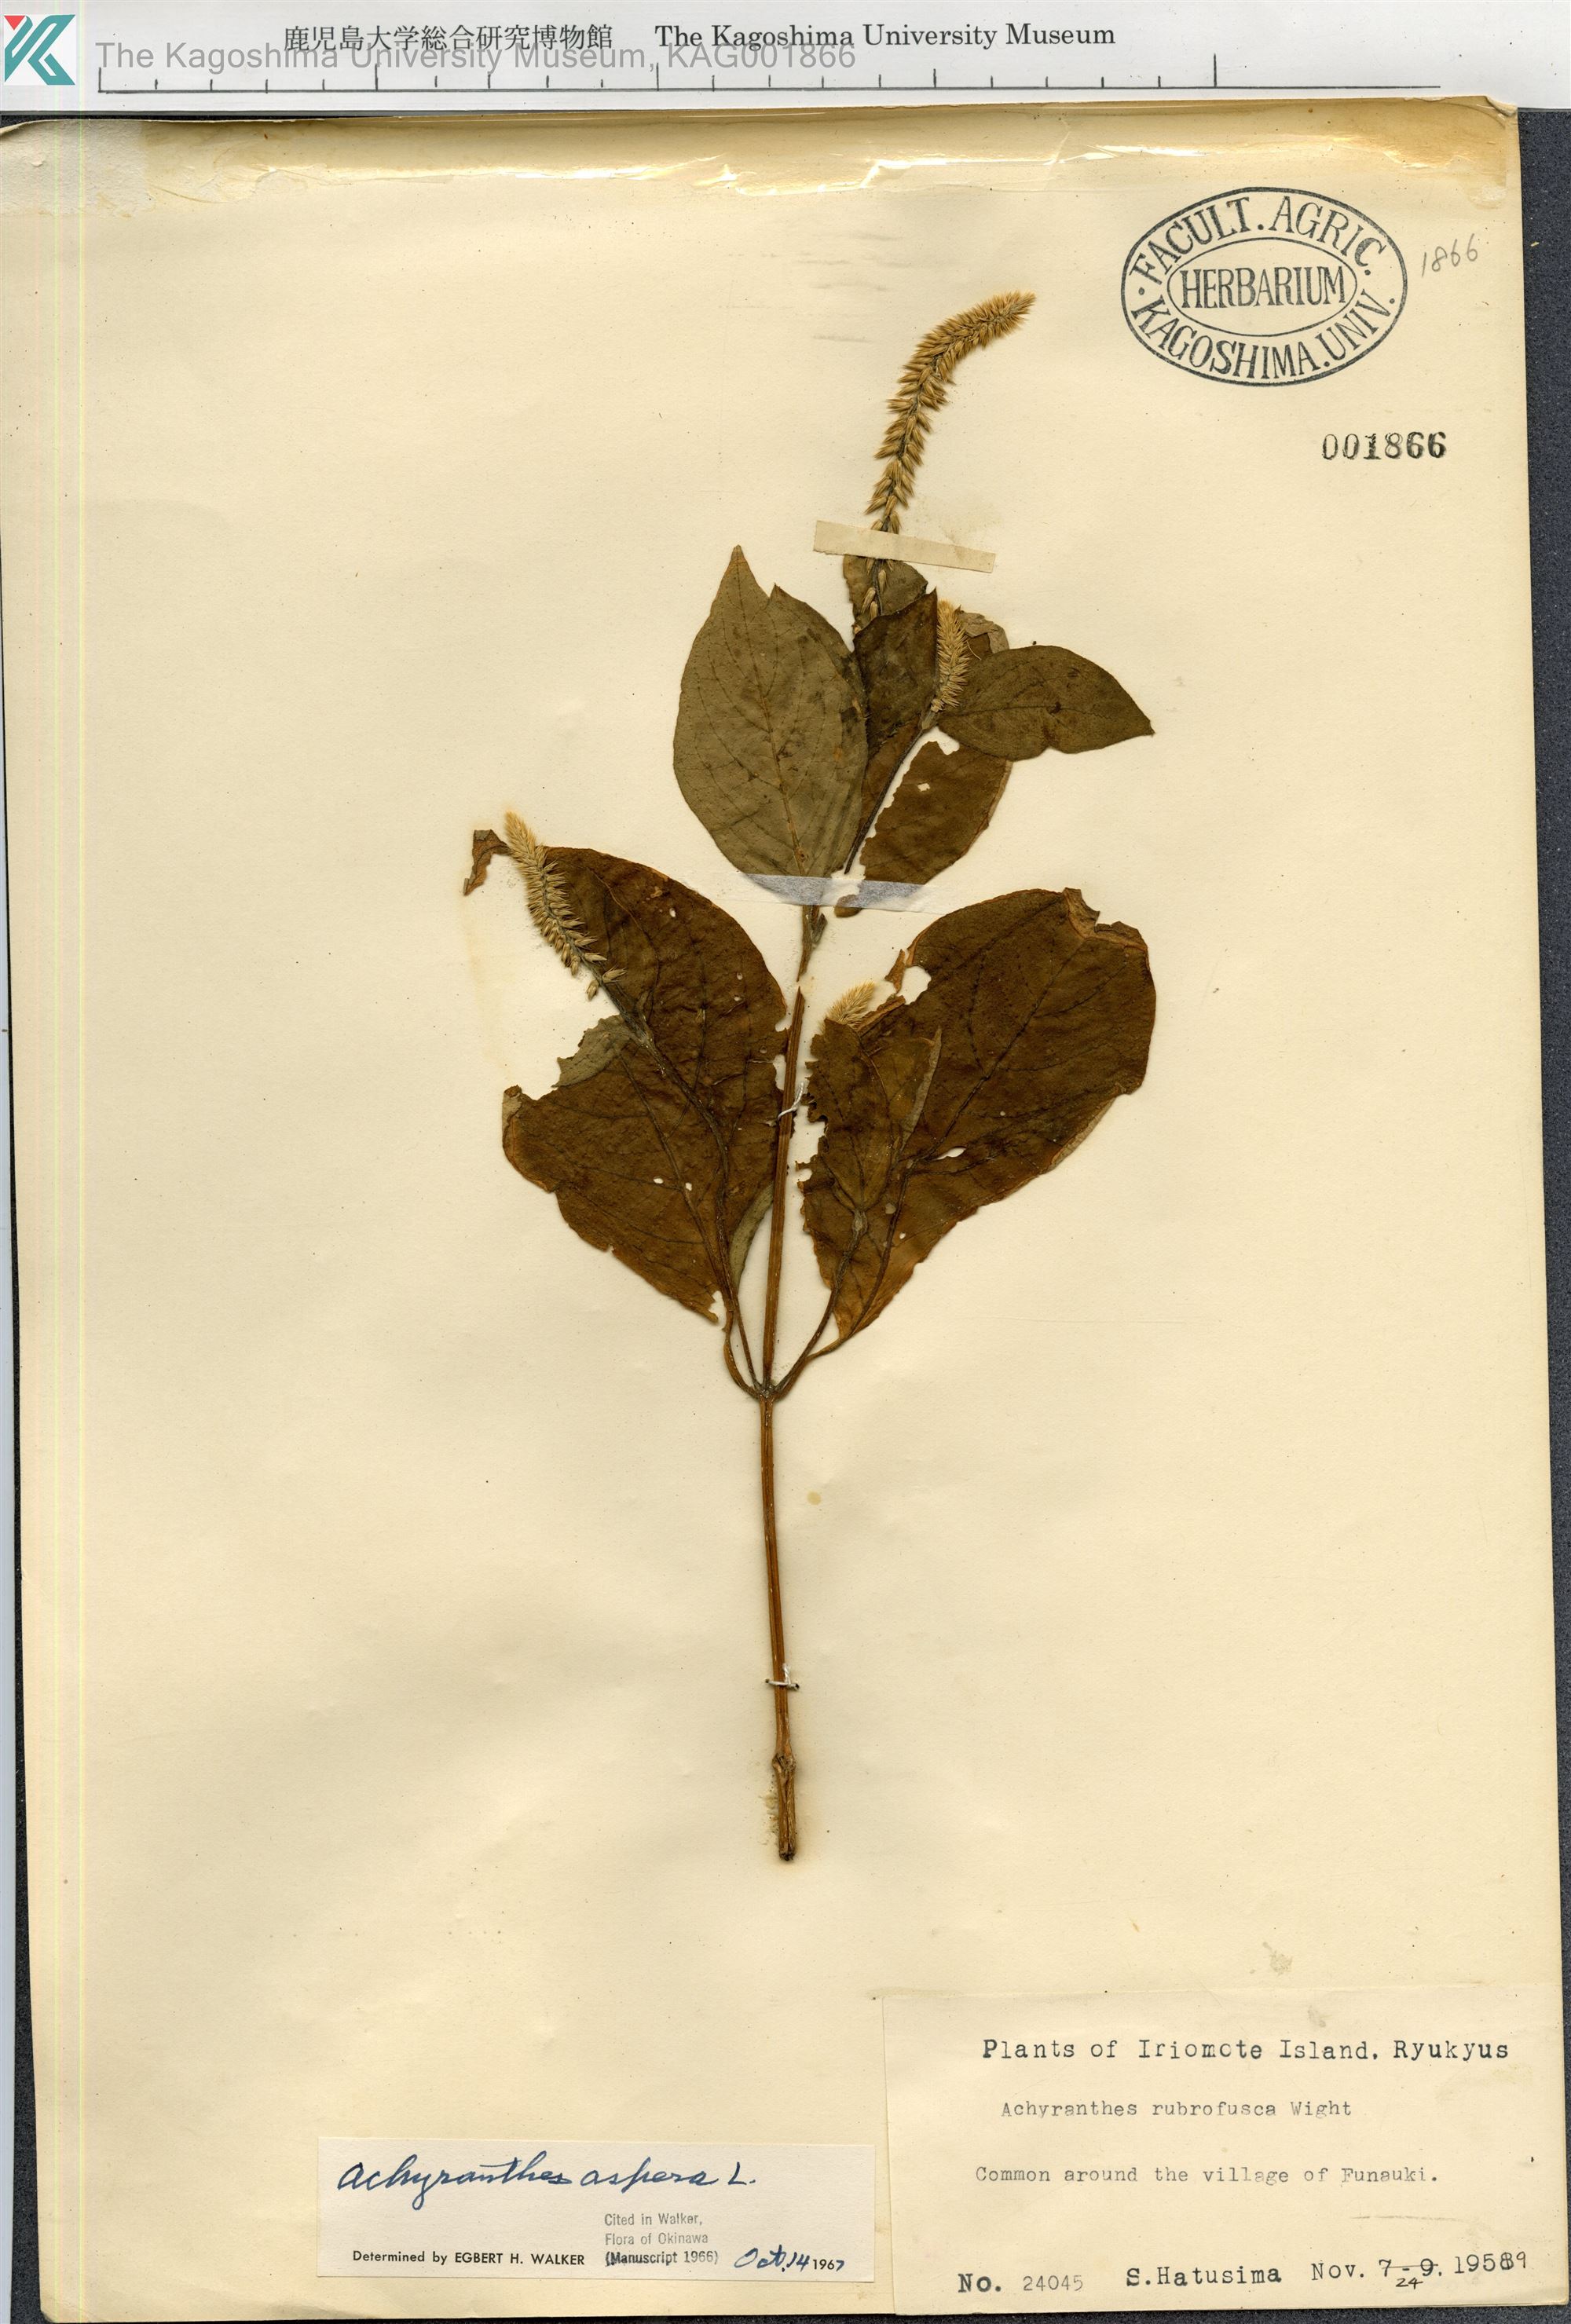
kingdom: Plantae
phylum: Tracheophyta
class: Magnoliopsida
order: Caryophyllales
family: Amaranthaceae
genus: Achyranthes
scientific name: Achyranthes aspera
